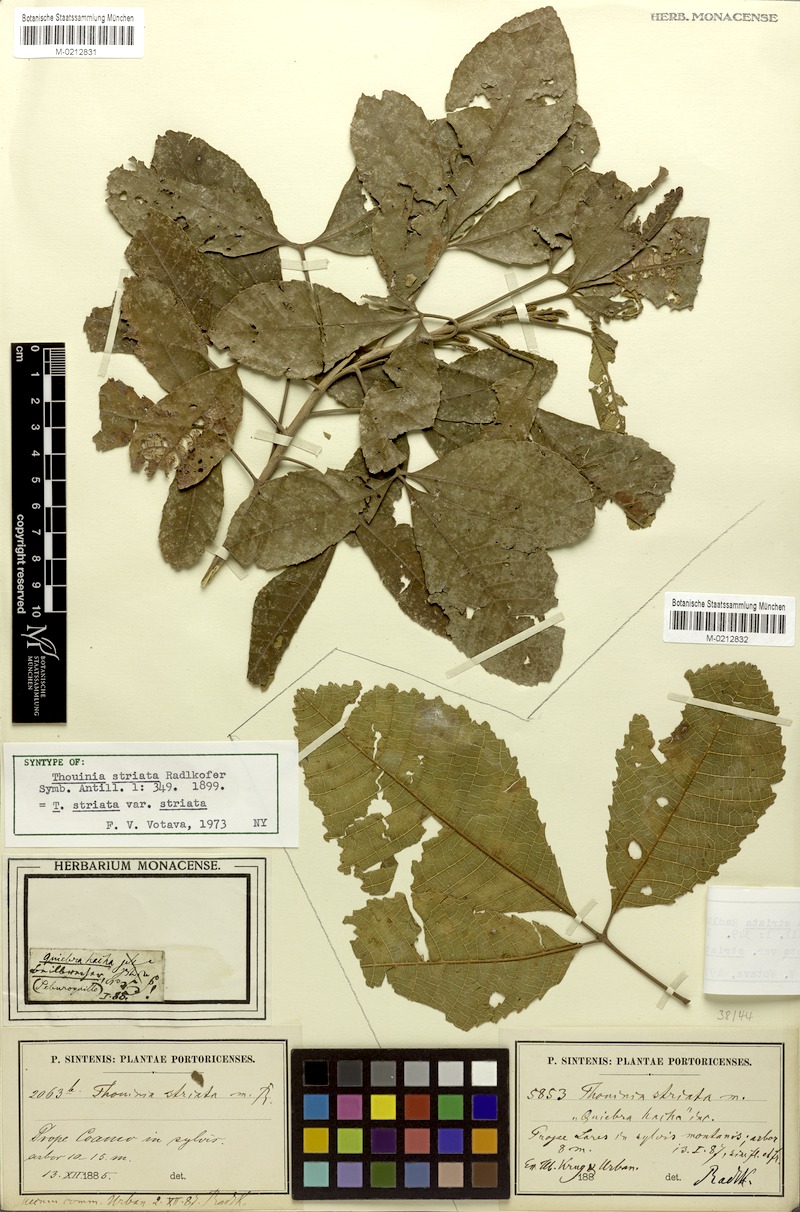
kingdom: Plantae
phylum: Tracheophyta
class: Magnoliopsida
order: Sapindales
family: Sapindaceae
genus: Thouinia
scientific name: Thouinia striata
